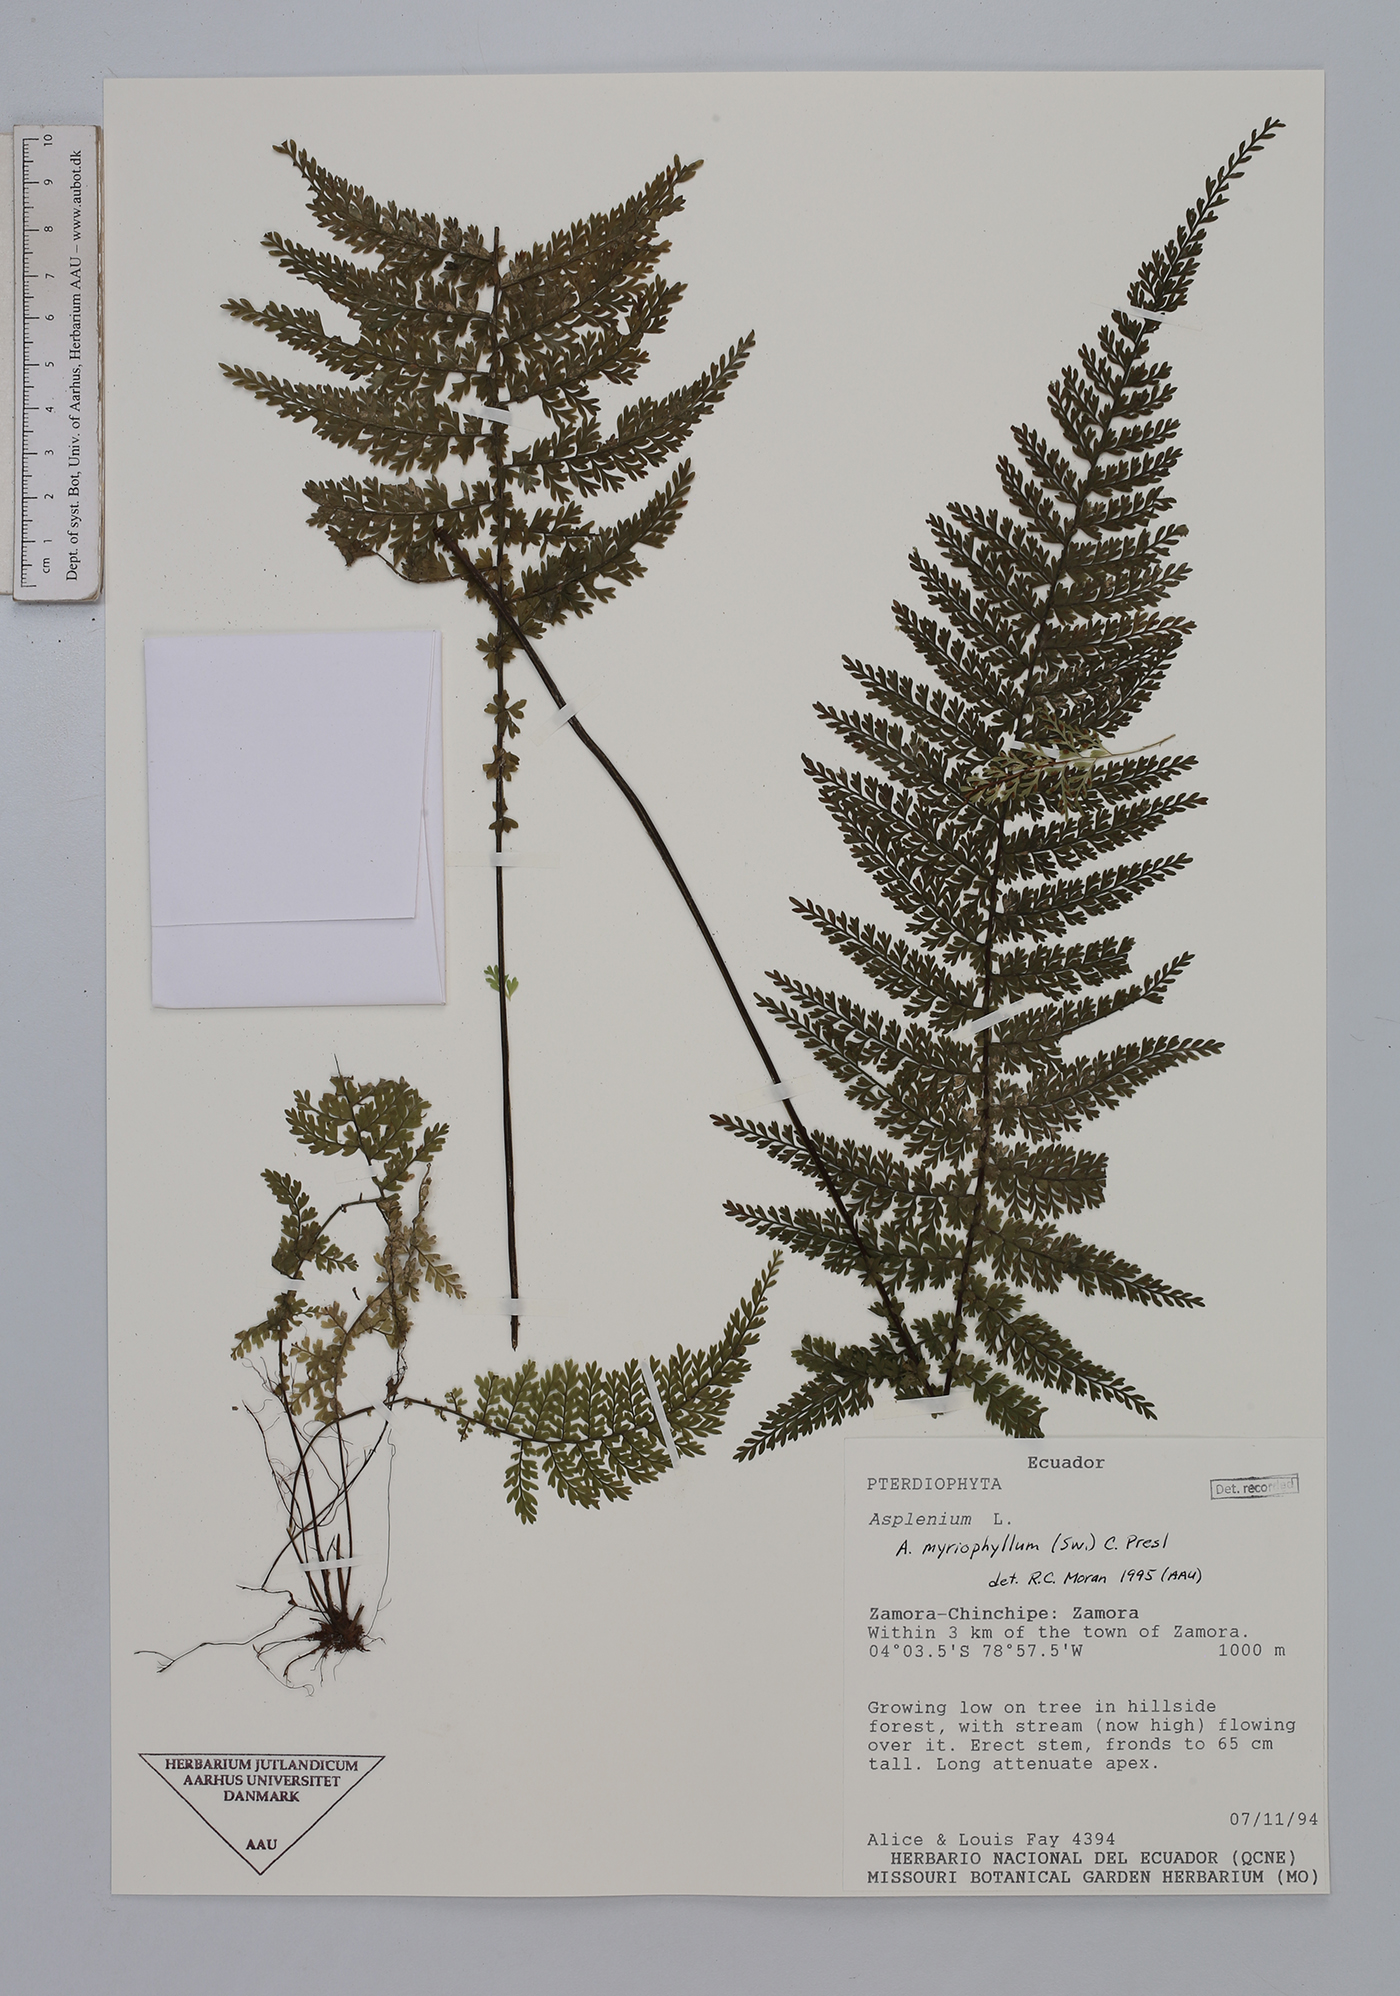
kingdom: Plantae
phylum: Tracheophyta
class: Polypodiopsida
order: Polypodiales
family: Aspleniaceae
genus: Asplenium
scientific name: Asplenium myriophyllum
